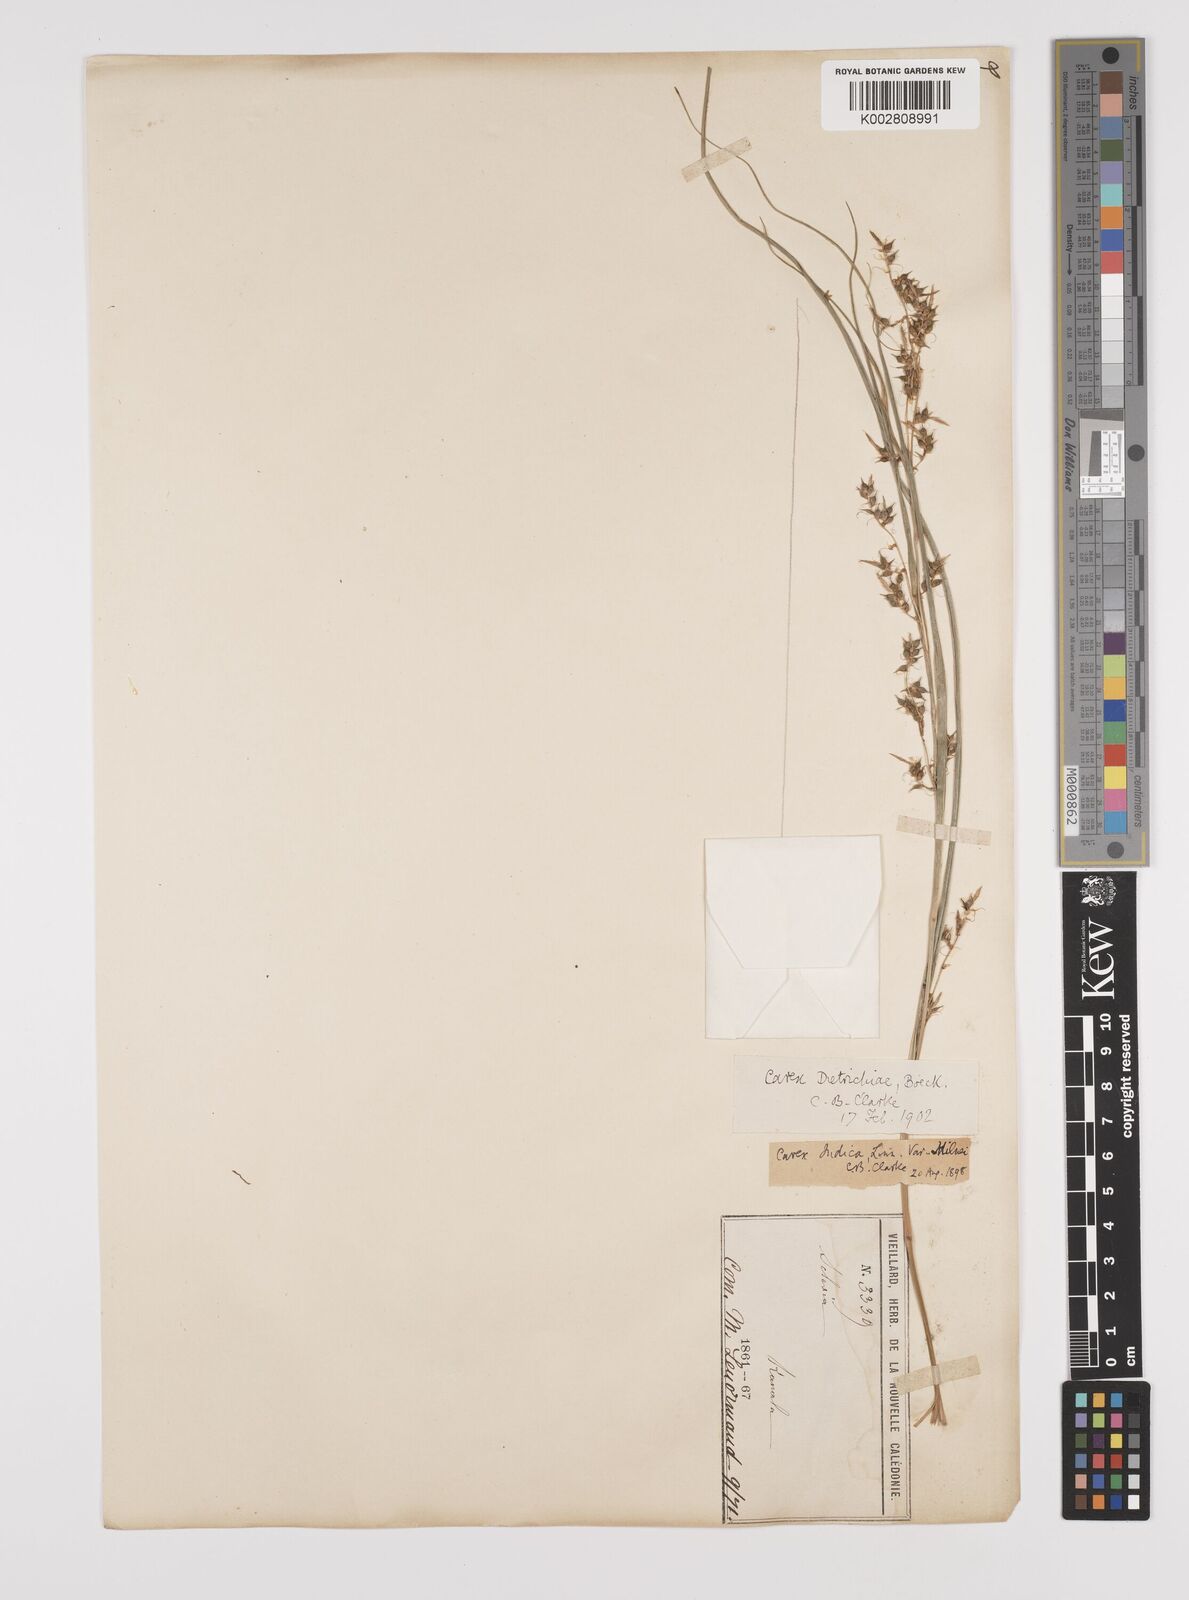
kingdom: Plantae
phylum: Tracheophyta
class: Liliopsida
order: Poales
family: Cyperaceae
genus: Carex
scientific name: Carex indica
